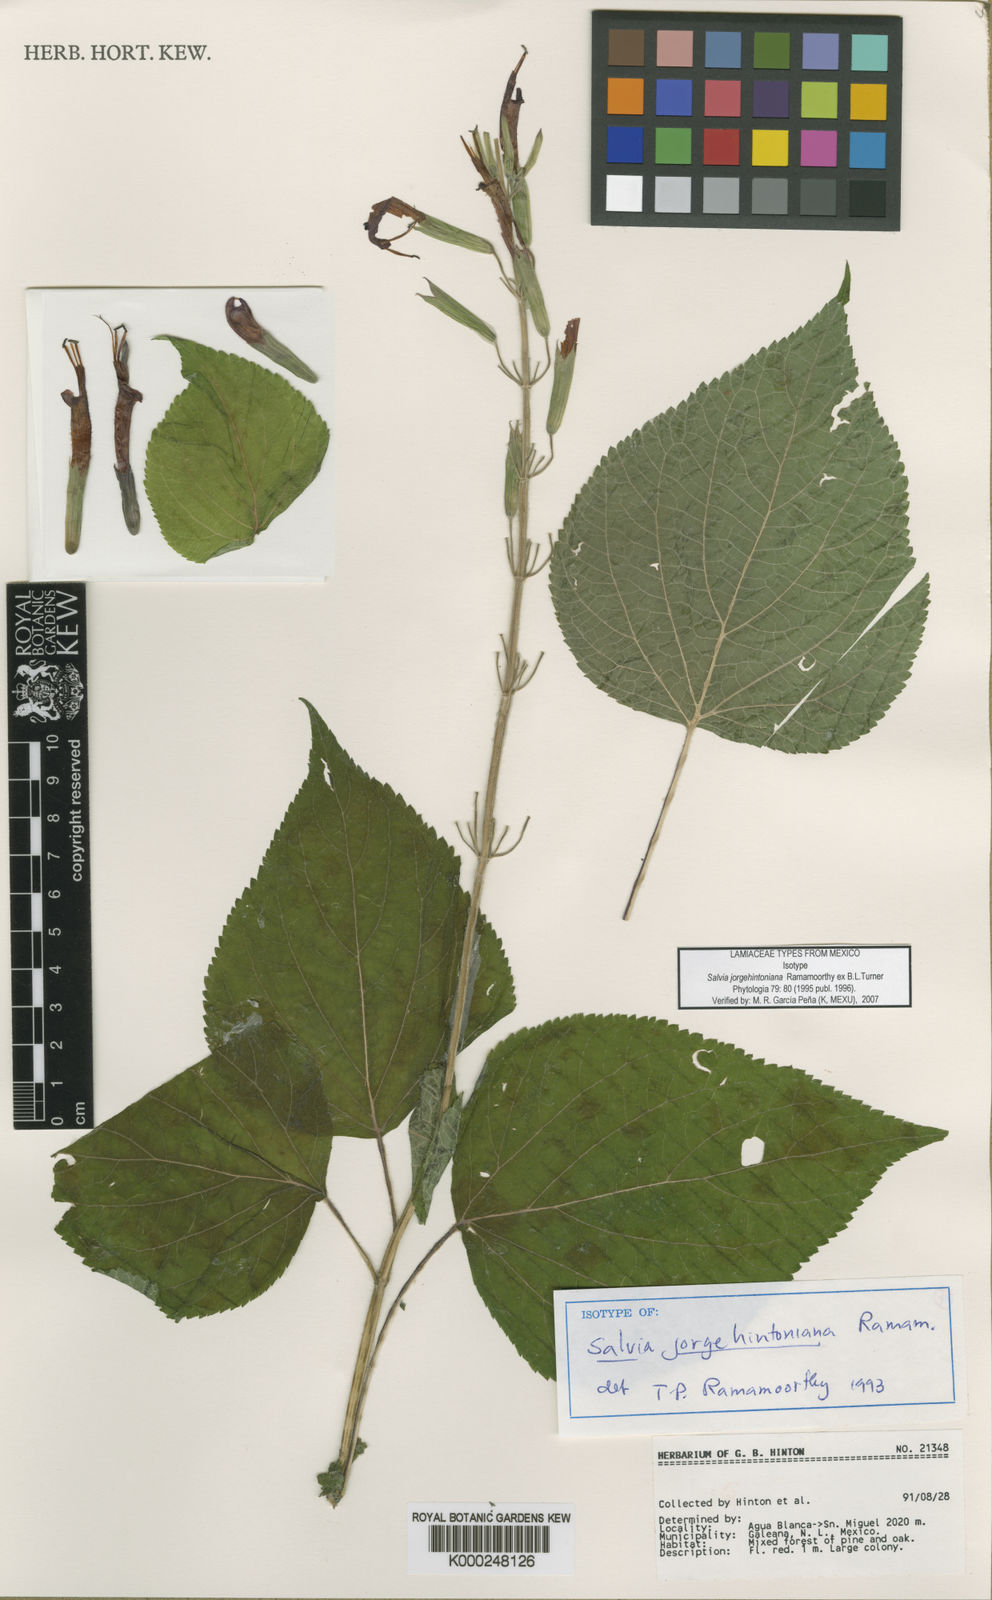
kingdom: Plantae
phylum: Tracheophyta
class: Magnoliopsida
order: Lamiales
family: Lamiaceae
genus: Salvia
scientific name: Salvia longistyla
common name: Mexican sage
